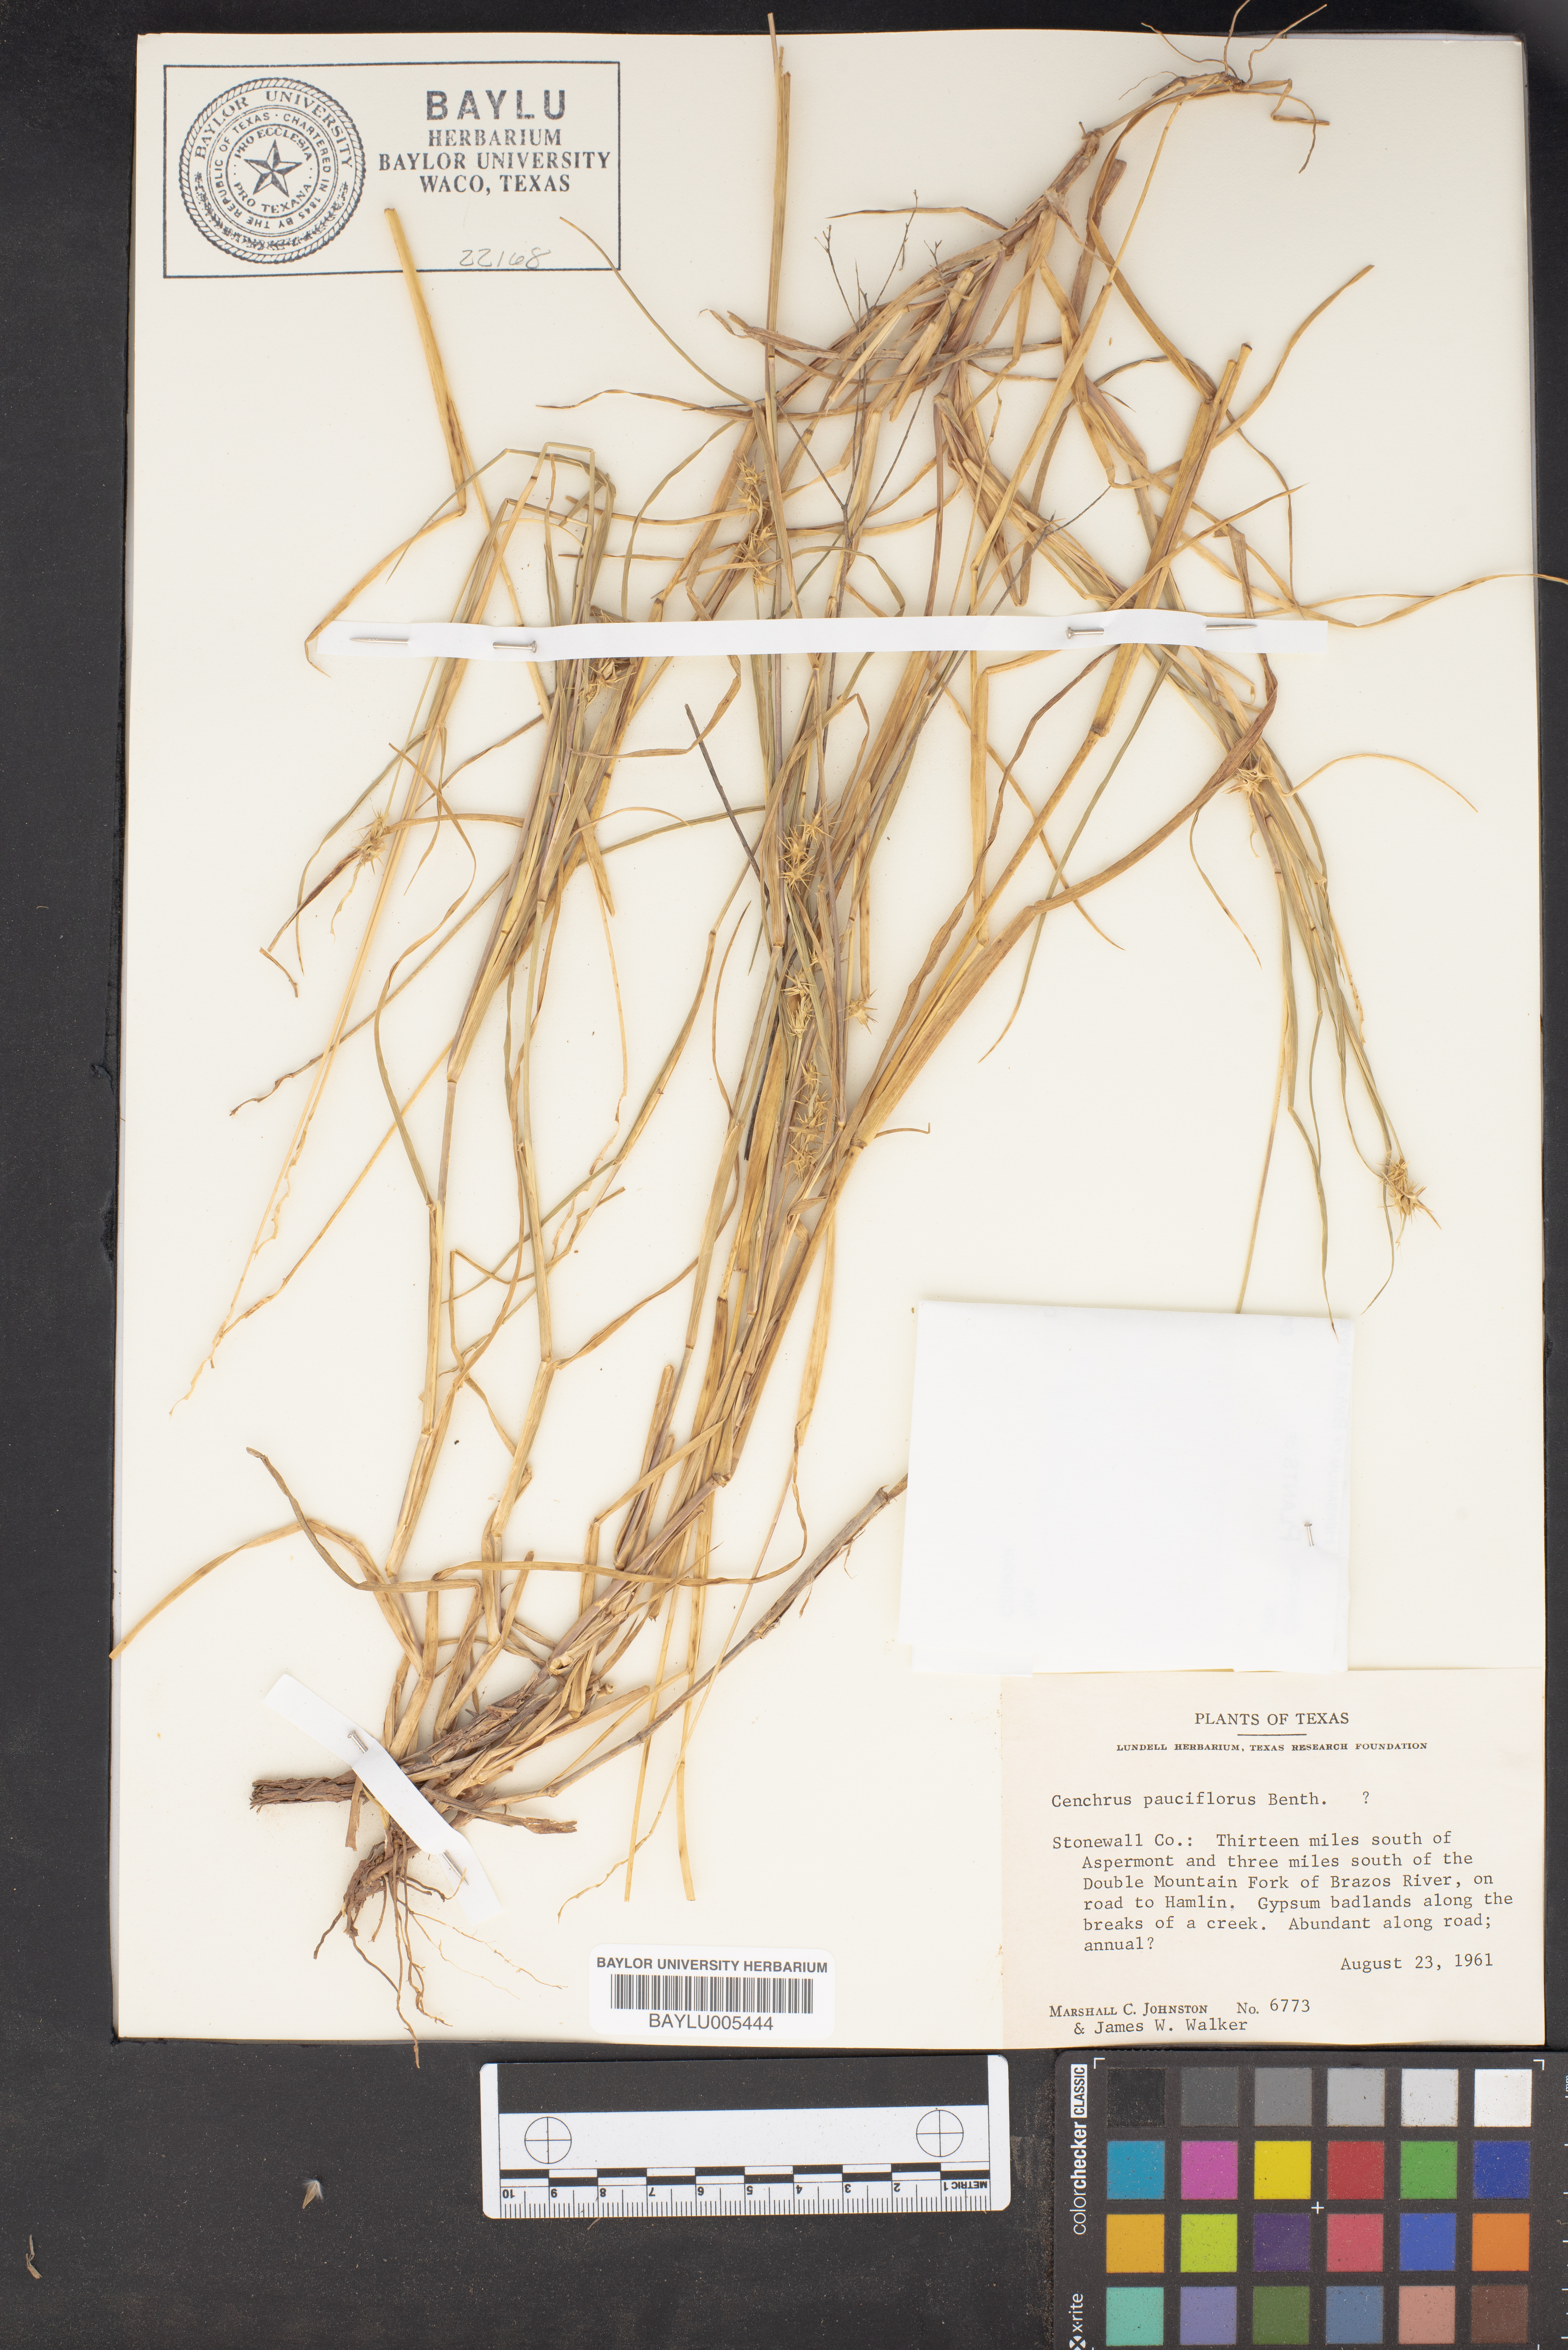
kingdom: Plantae
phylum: Tracheophyta
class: Liliopsida
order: Poales
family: Poaceae
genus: Cenchrus
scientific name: Cenchrus spinifex
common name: Coast sandbur
